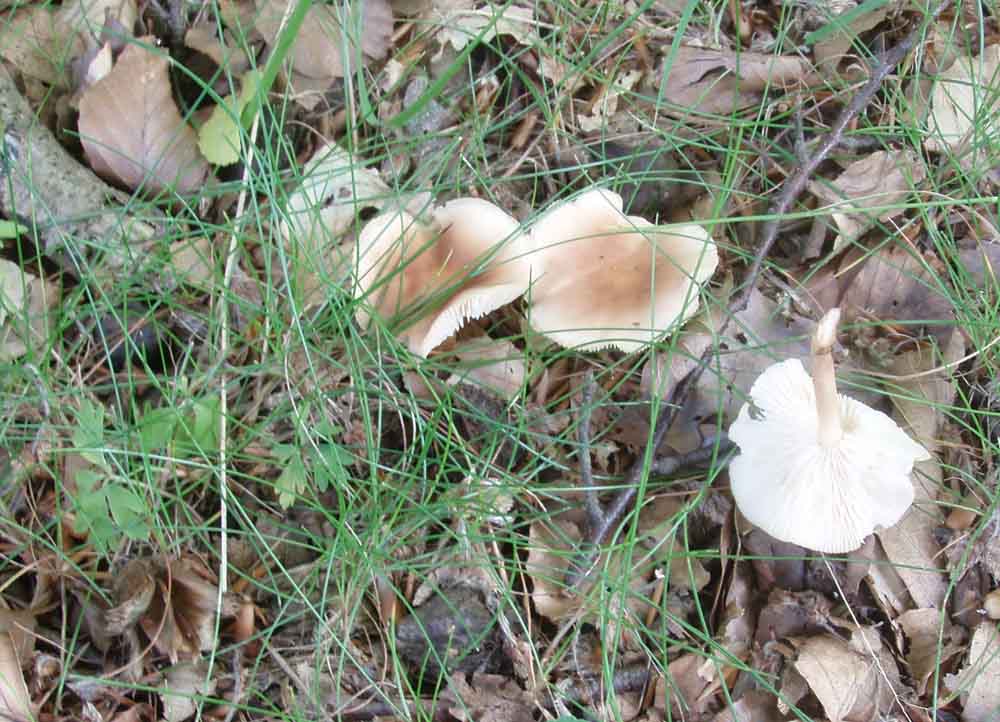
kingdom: Fungi
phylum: Basidiomycota
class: Agaricomycetes
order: Agaricales
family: Omphalotaceae
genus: Gymnopus
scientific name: Gymnopus aquosus
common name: bleg fladhat
